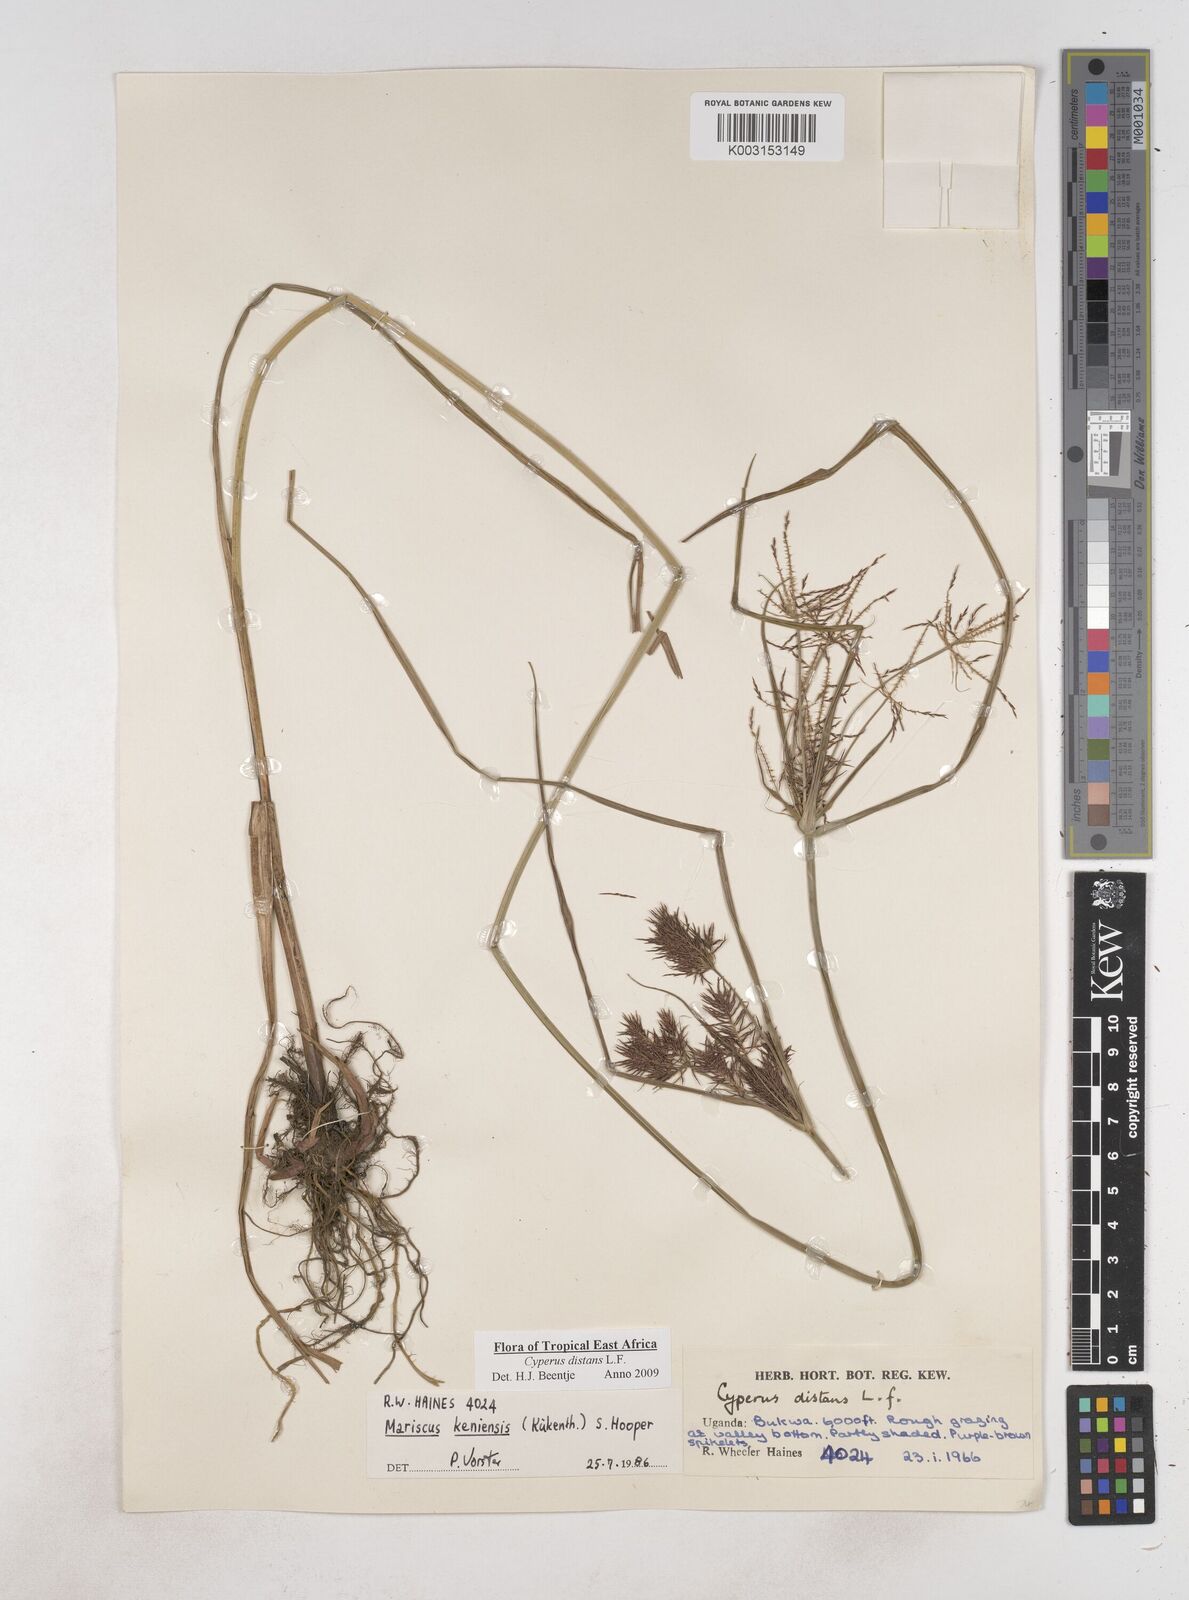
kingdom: Plantae
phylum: Tracheophyta
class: Liliopsida
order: Poales
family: Cyperaceae
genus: Cyperus
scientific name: Cyperus distans
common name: Slender cyperus
